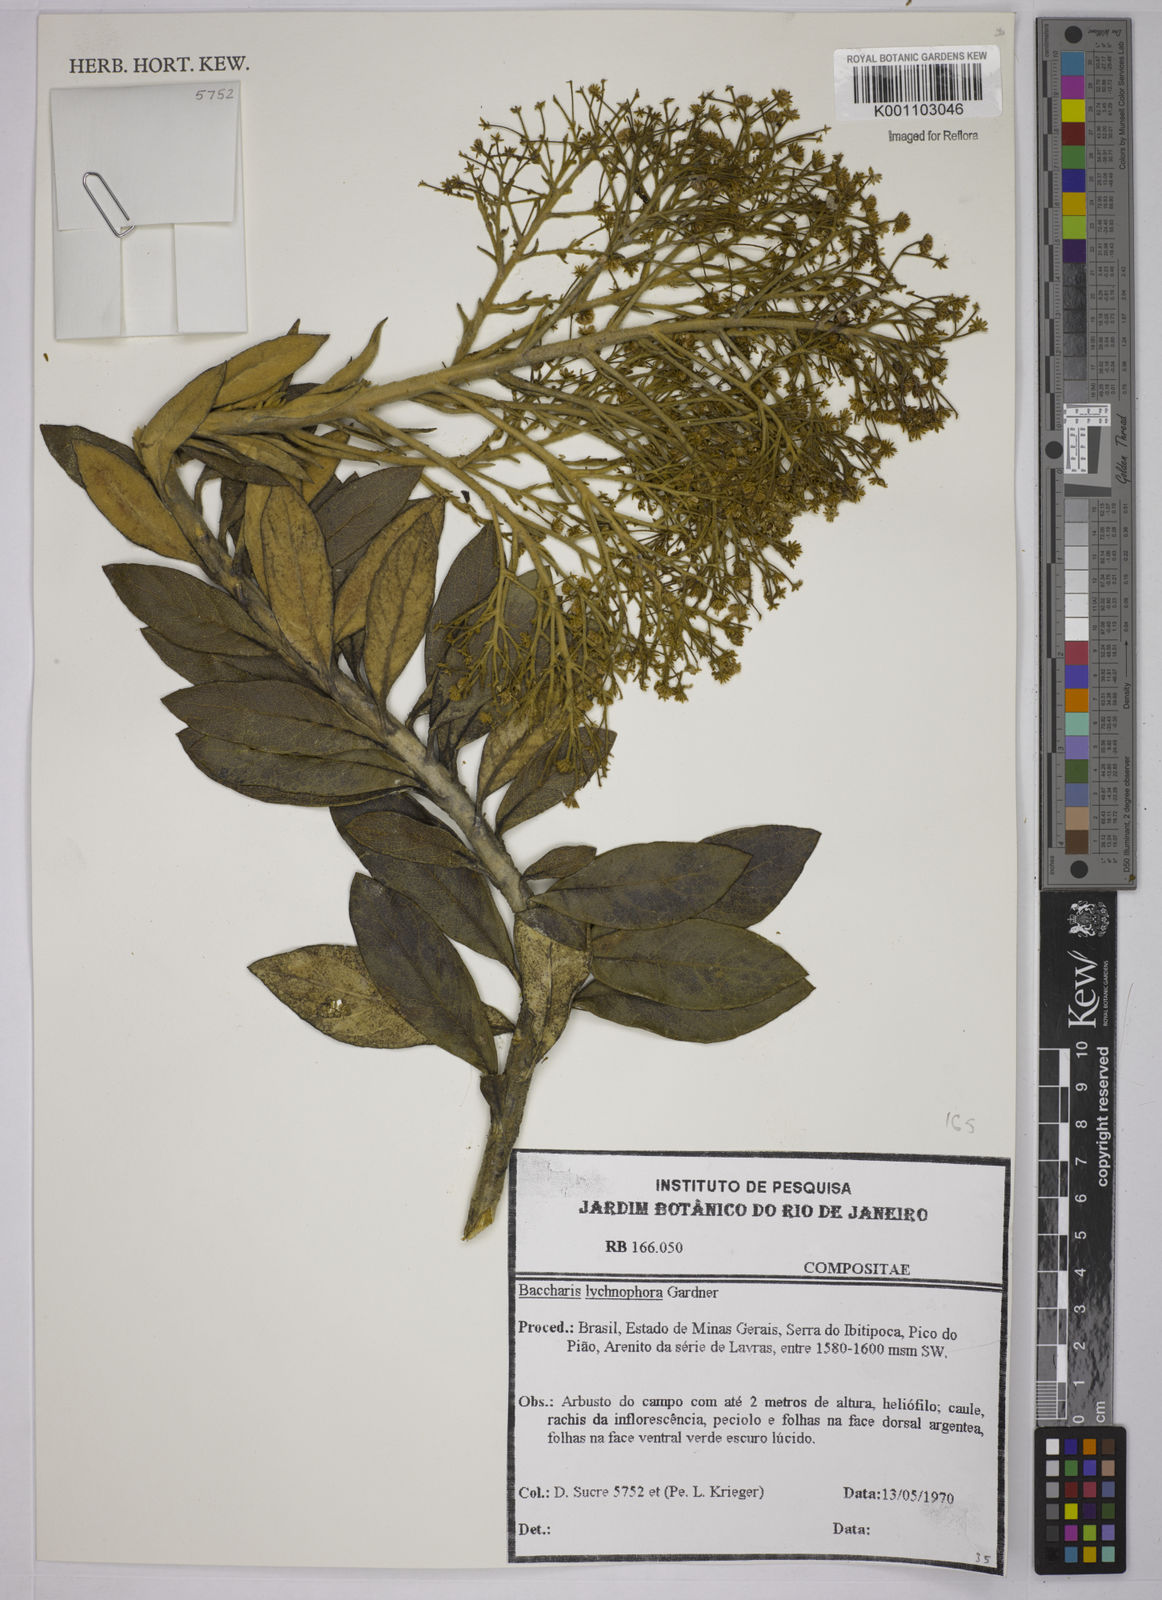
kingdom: Plantae
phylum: Tracheophyta
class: Magnoliopsida
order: Asterales
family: Asteraceae
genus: Baccharis
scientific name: Baccharis lychnophora
